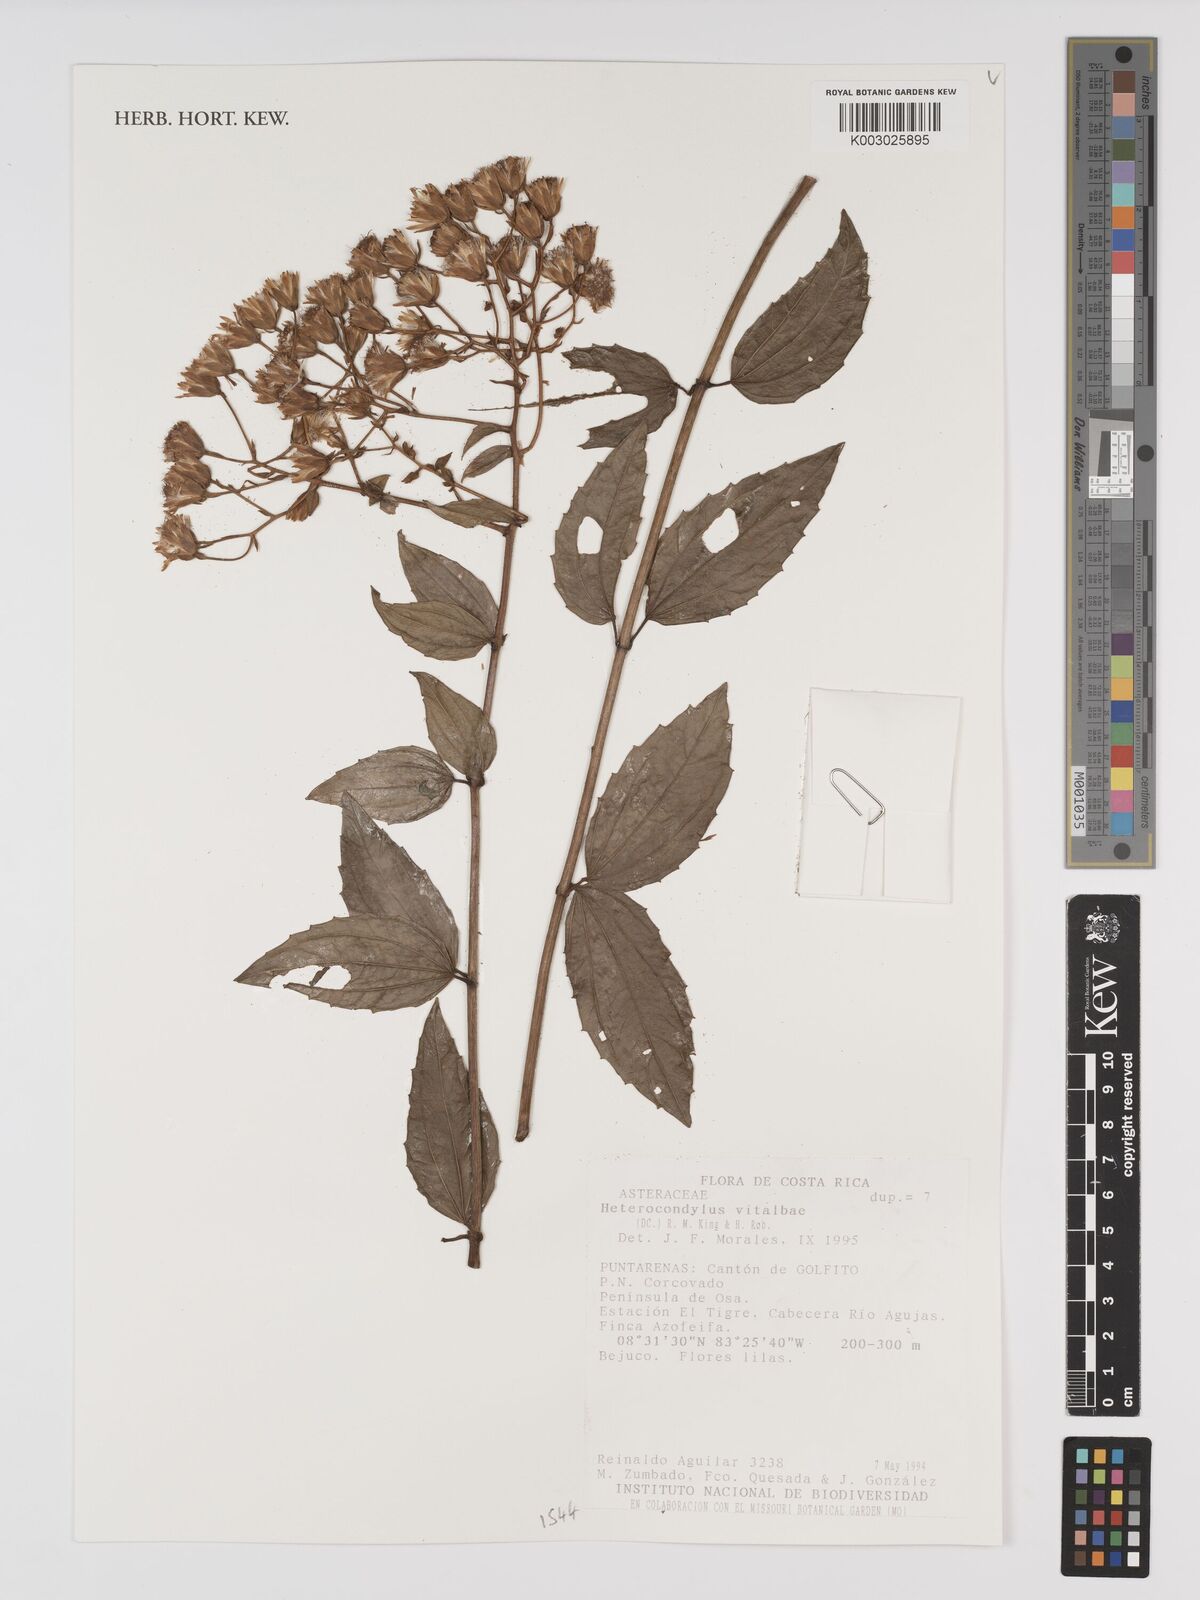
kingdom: Plantae
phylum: Tracheophyta
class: Magnoliopsida
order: Asterales
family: Asteraceae
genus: Heterocondylus
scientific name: Heterocondylus vitalbae
